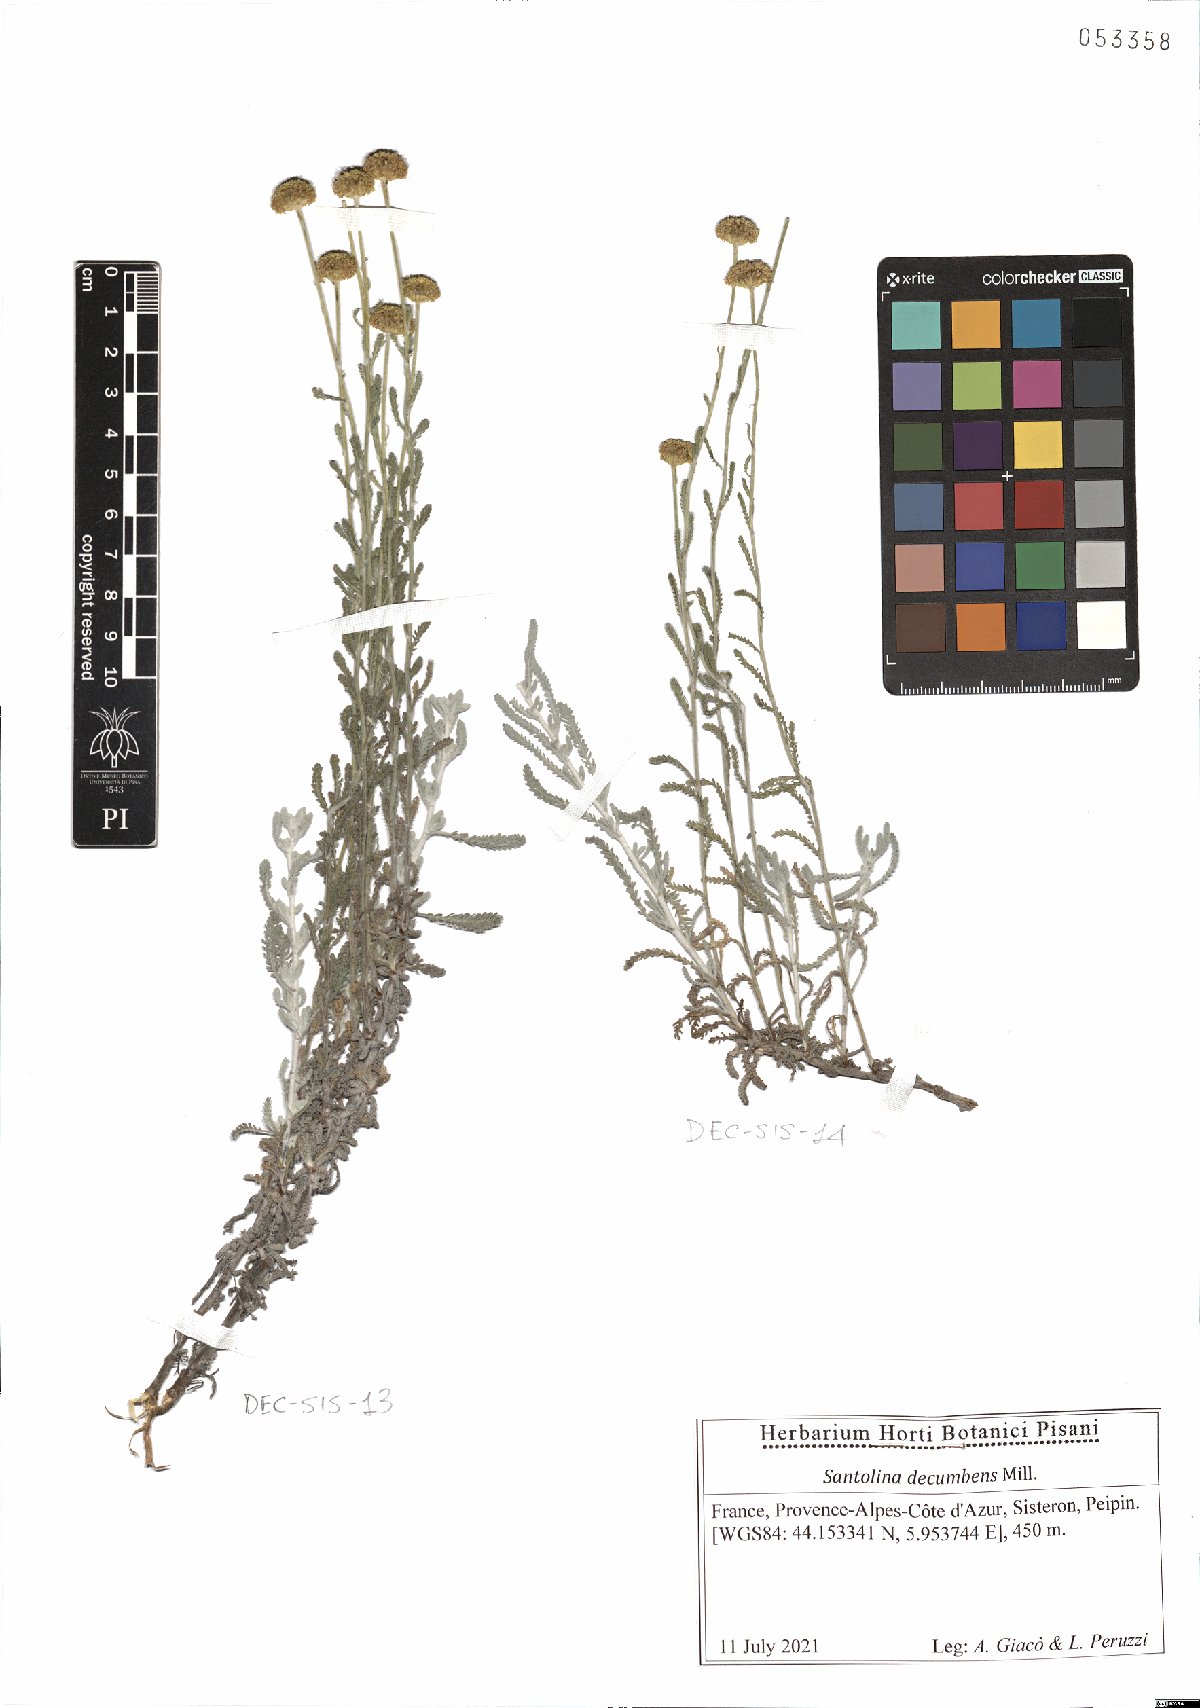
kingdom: Plantae
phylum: Tracheophyta
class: Magnoliopsida
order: Asterales
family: Asteraceae
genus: Santolina
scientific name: Santolina decumbens
